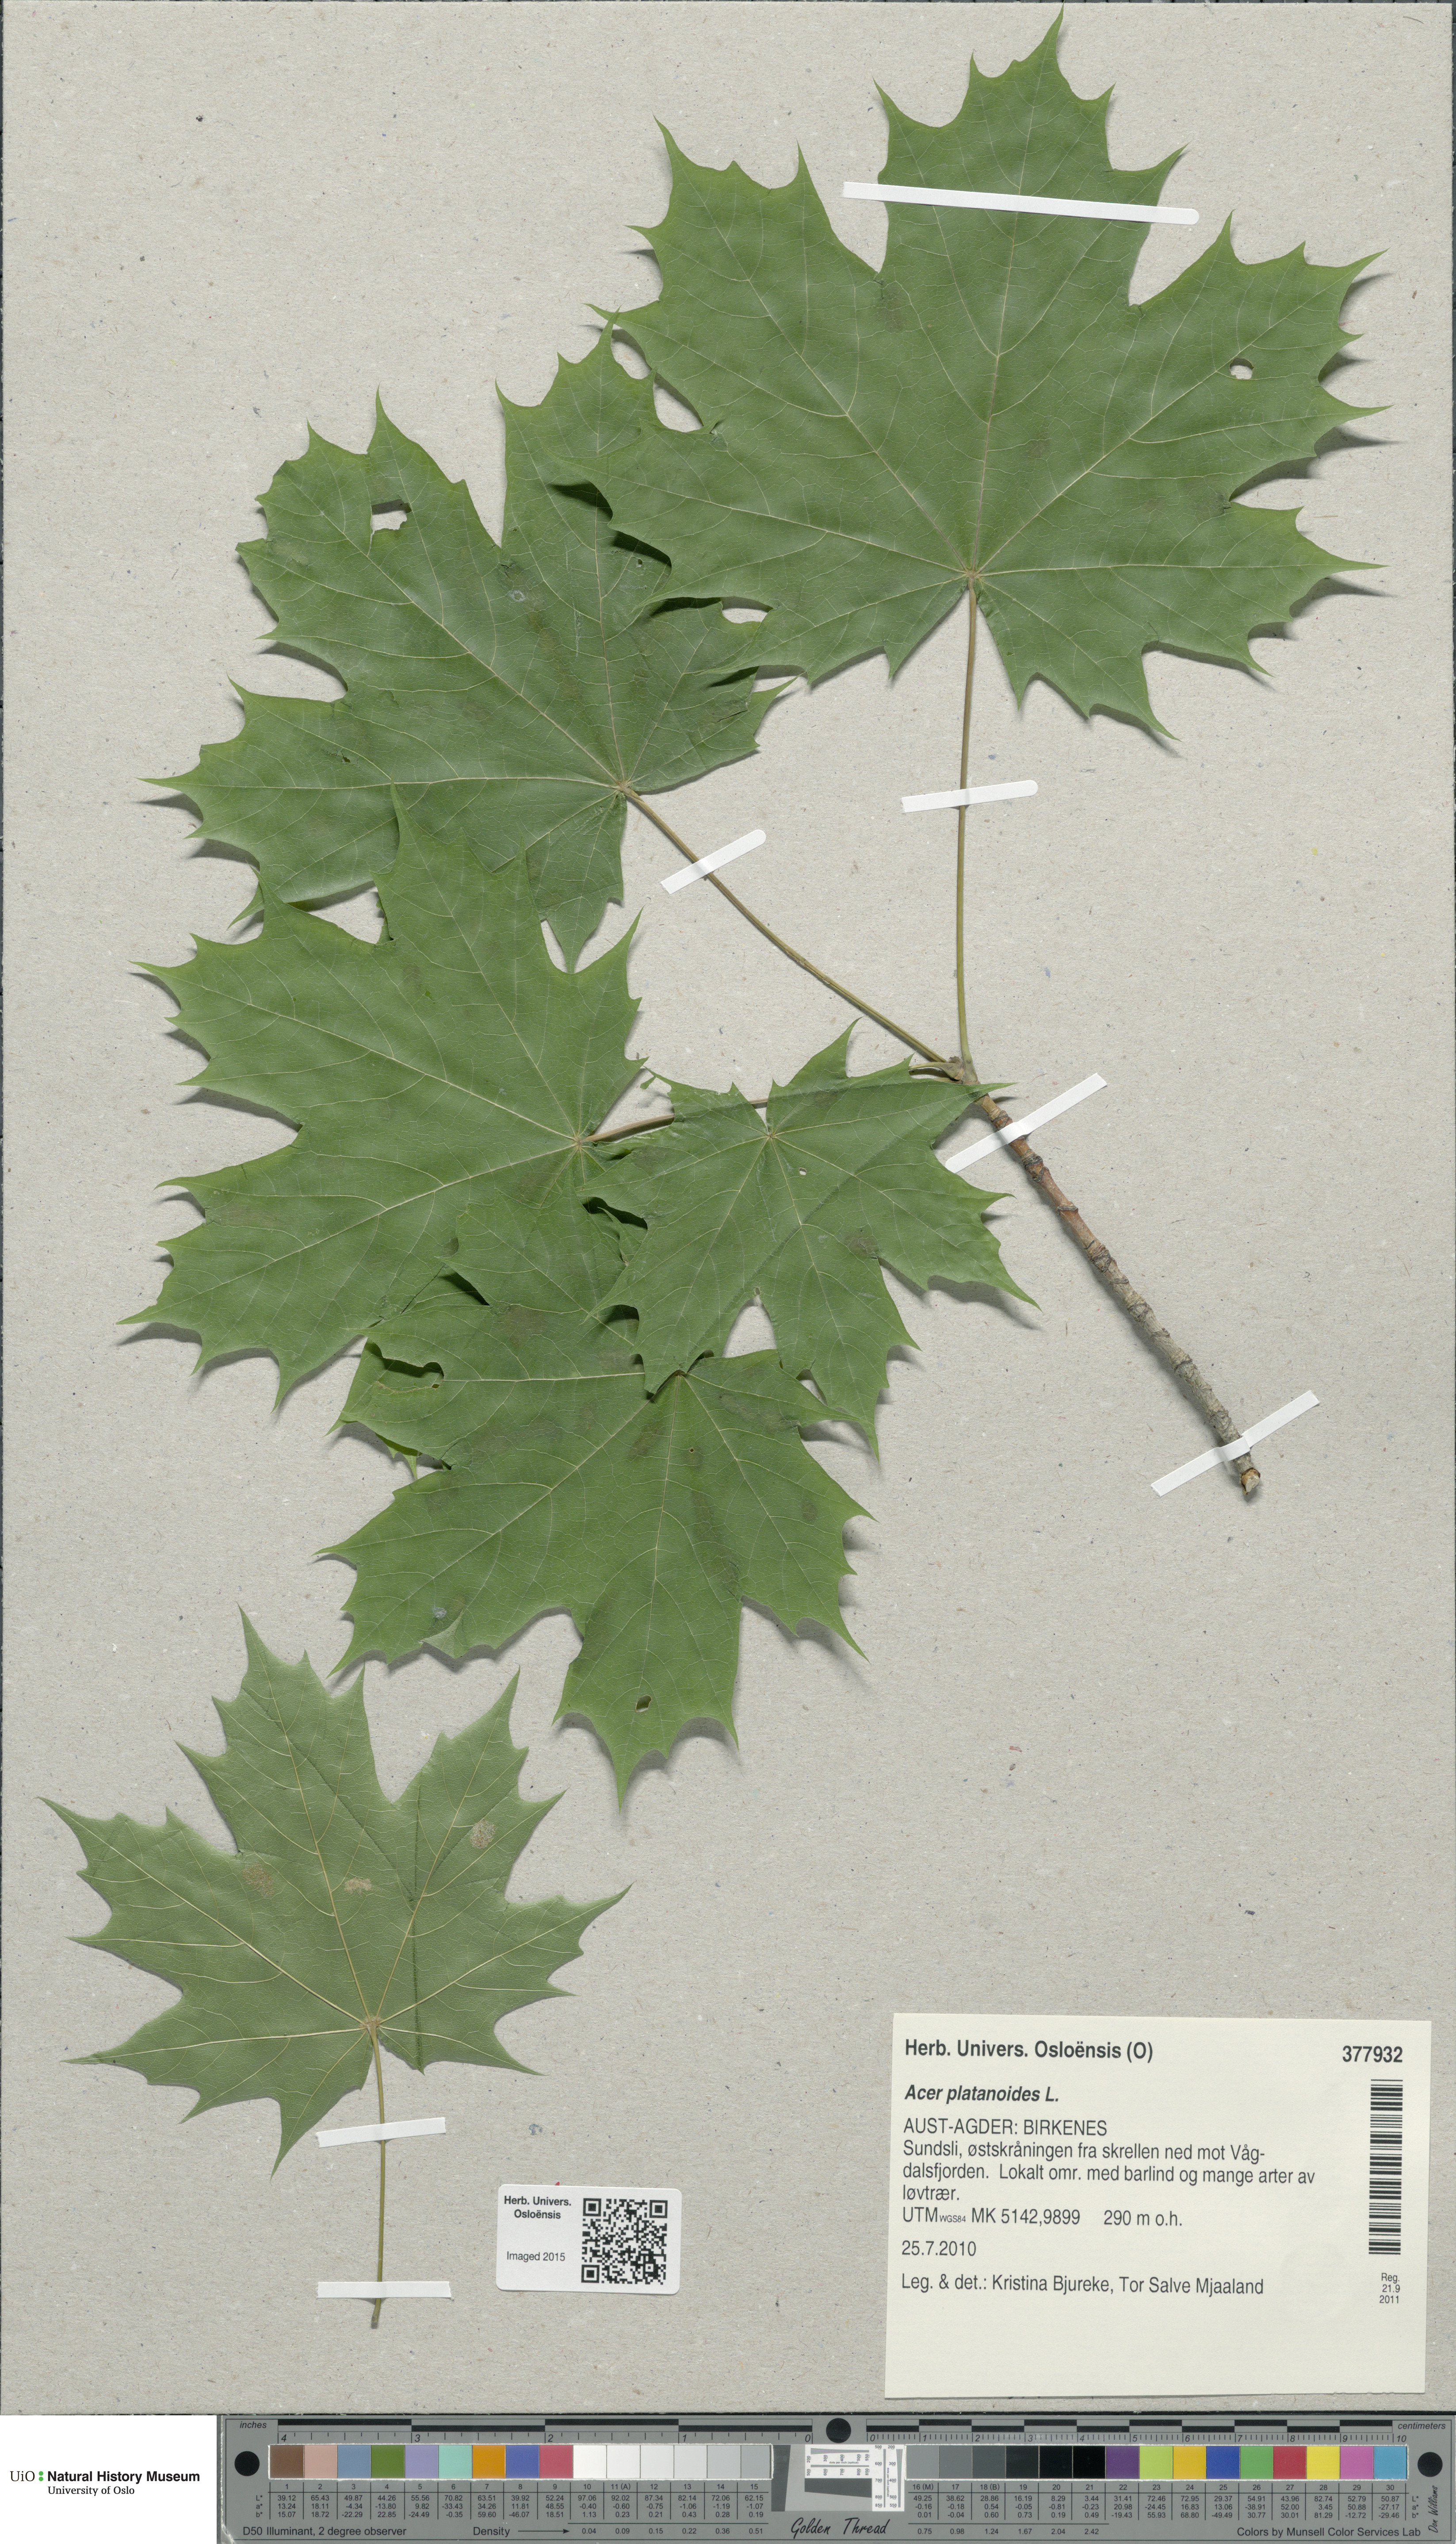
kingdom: Plantae
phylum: Tracheophyta
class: Magnoliopsida
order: Sapindales
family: Sapindaceae
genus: Acer
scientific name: Acer platanoides
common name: Norway maple
